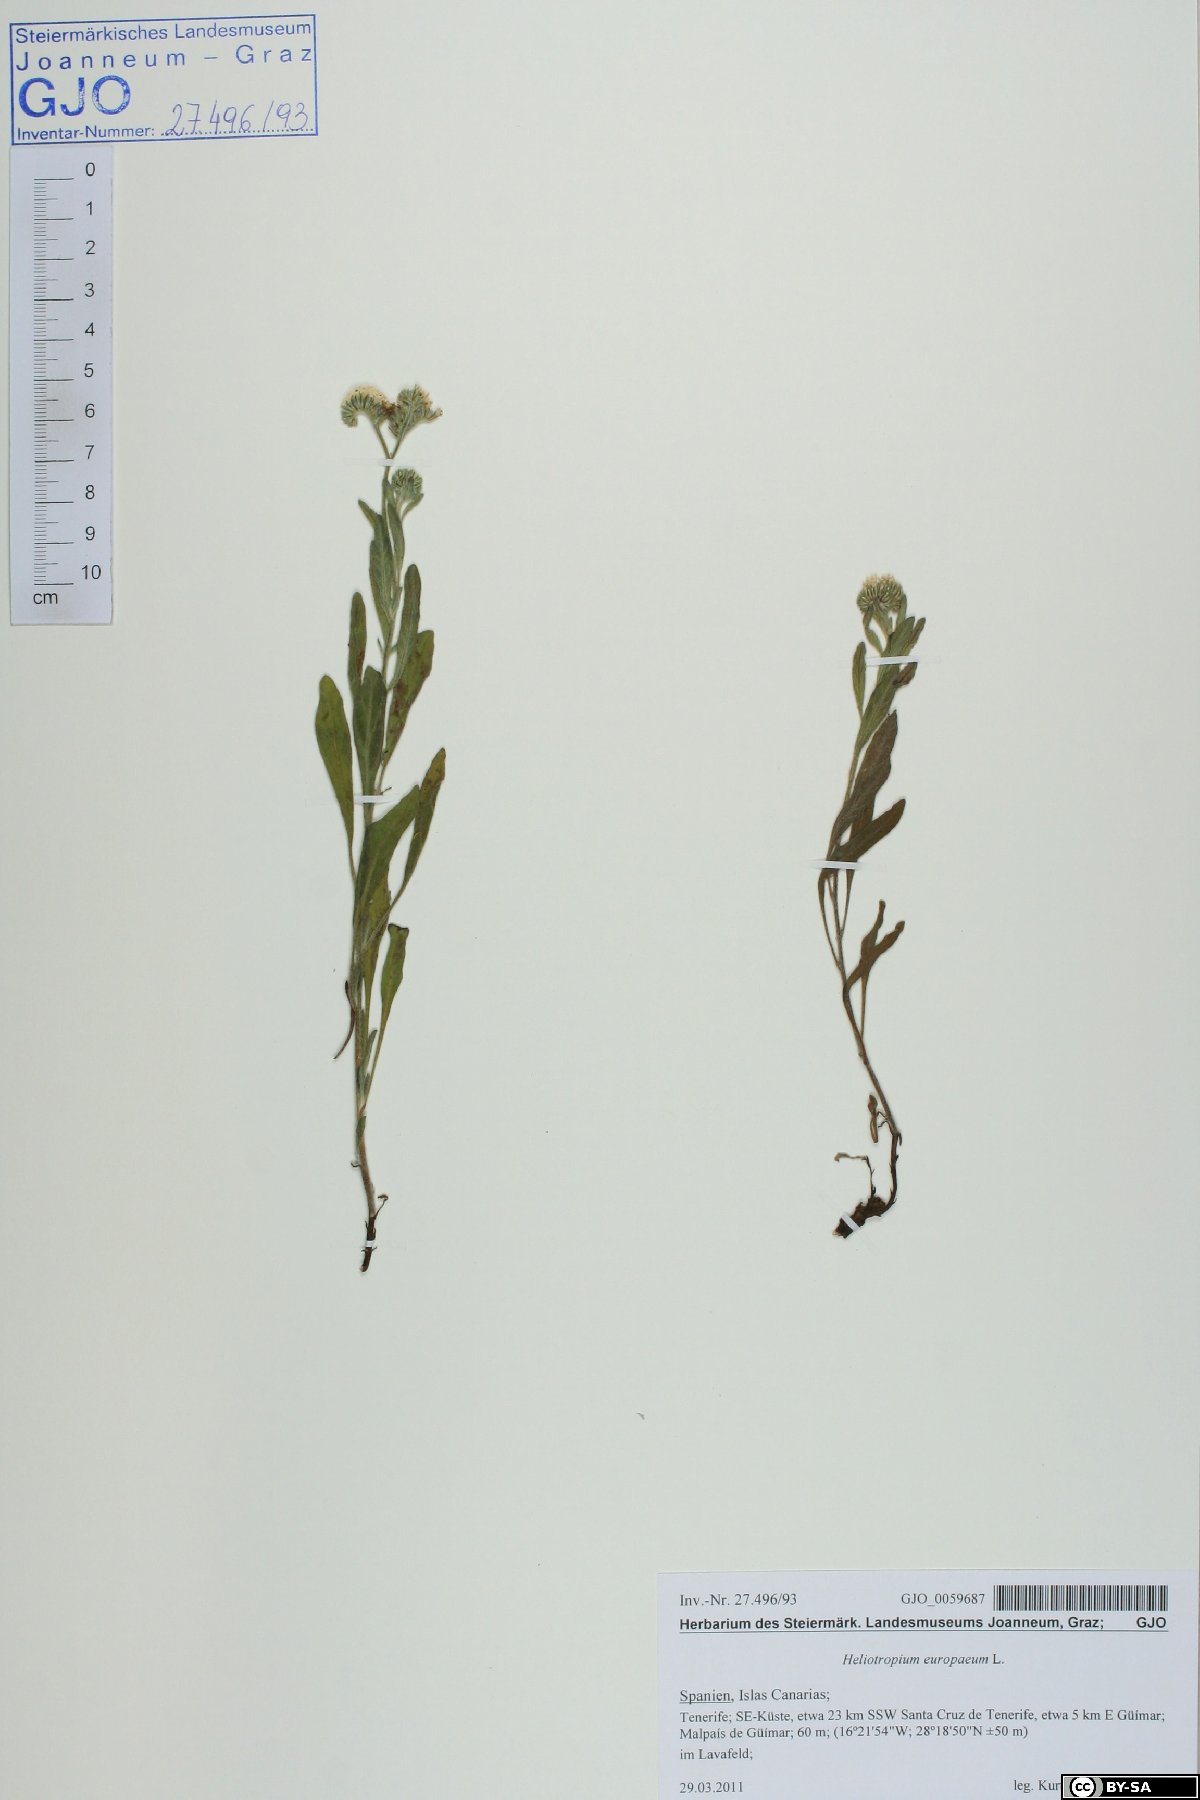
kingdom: Plantae
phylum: Tracheophyta
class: Magnoliopsida
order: Boraginales
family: Heliotropiaceae
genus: Heliotropium
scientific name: Heliotropium europaeum
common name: European heliotrope
